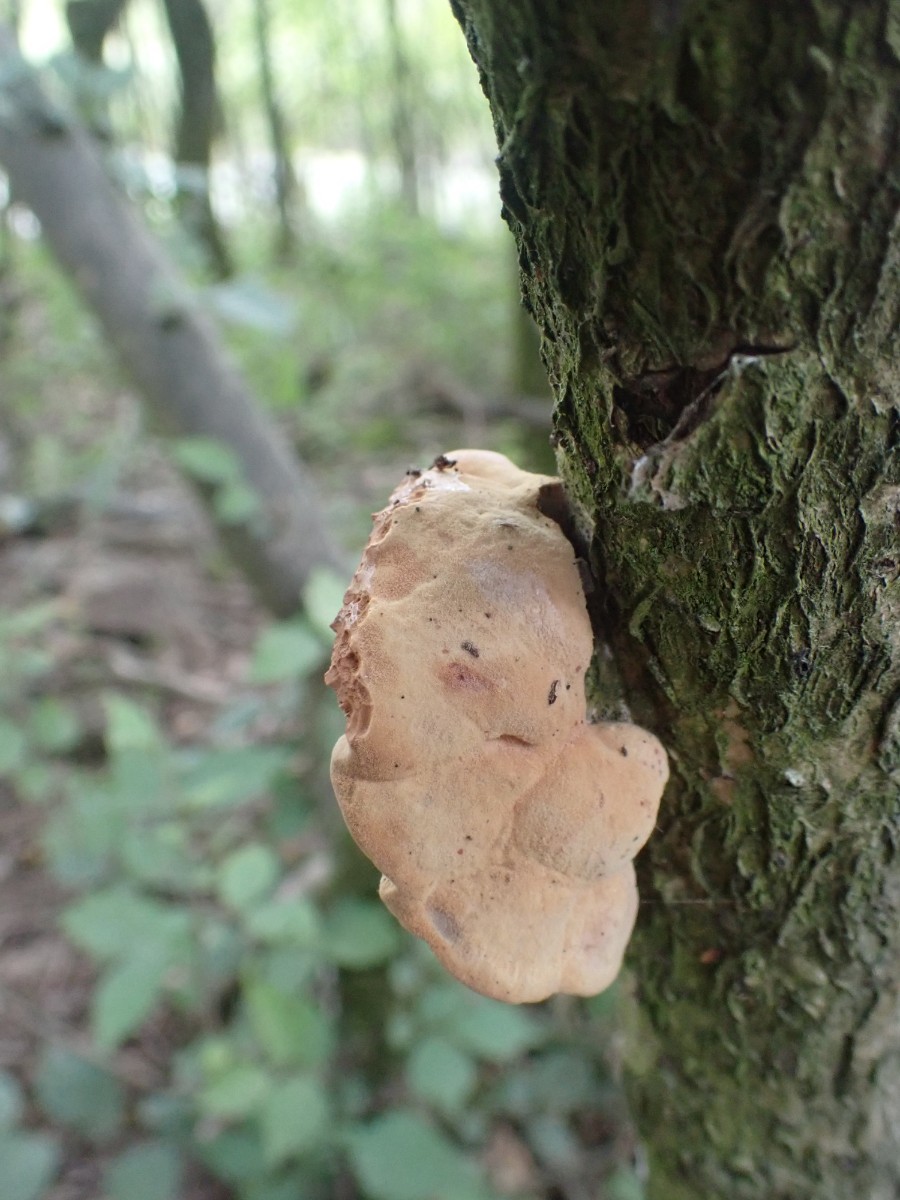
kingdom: Fungi
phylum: Basidiomycota
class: Agaricomycetes
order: Polyporales
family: Phanerochaetaceae
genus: Hapalopilus
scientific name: Hapalopilus rutilans
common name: rødlig okkerporesvamp
